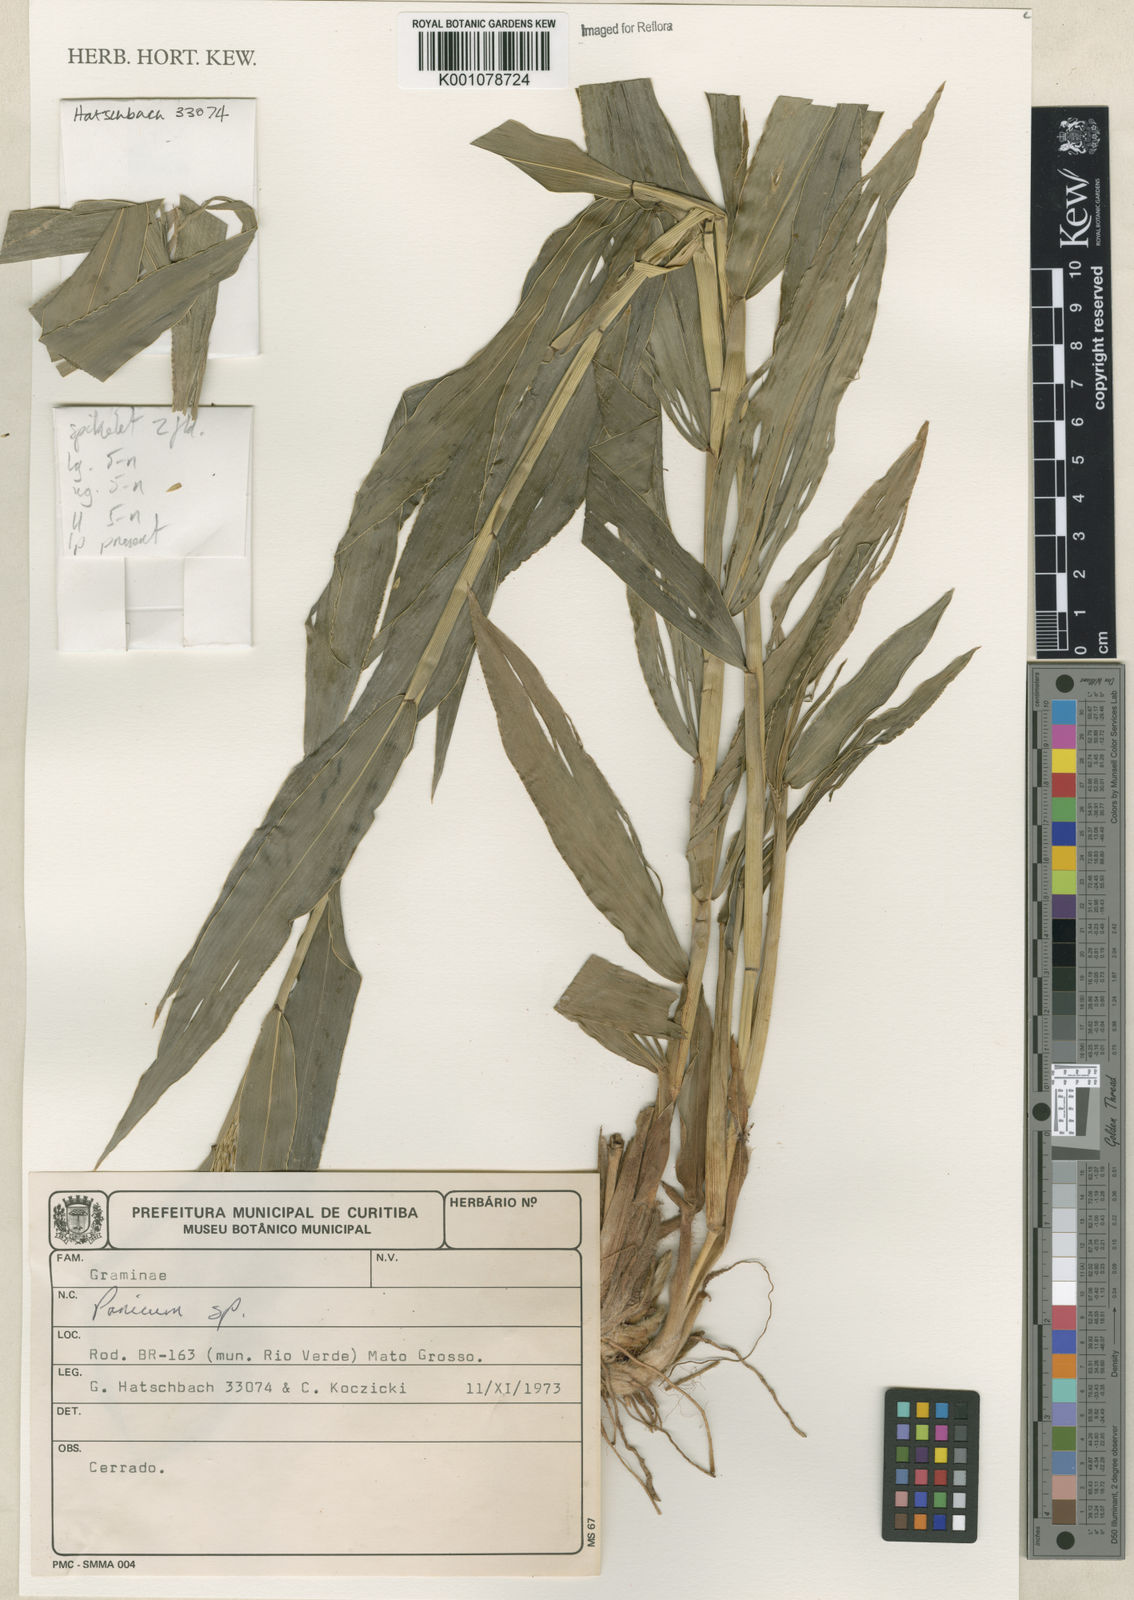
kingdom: Plantae
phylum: Tracheophyta
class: Liliopsida
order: Poales
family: Poaceae
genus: Panicum
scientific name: Panicum
